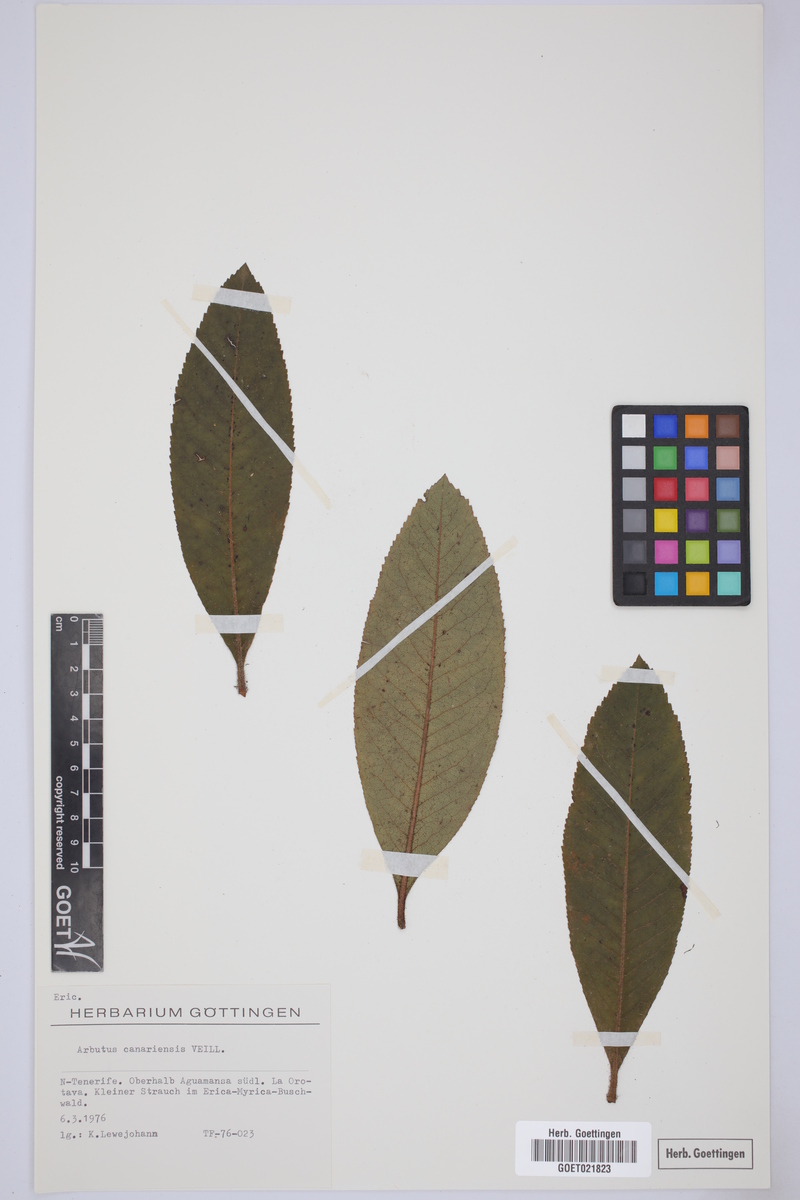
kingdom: Plantae
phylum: Tracheophyta
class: Magnoliopsida
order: Ericales
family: Ericaceae
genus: Arbutus
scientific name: Arbutus canariensis
